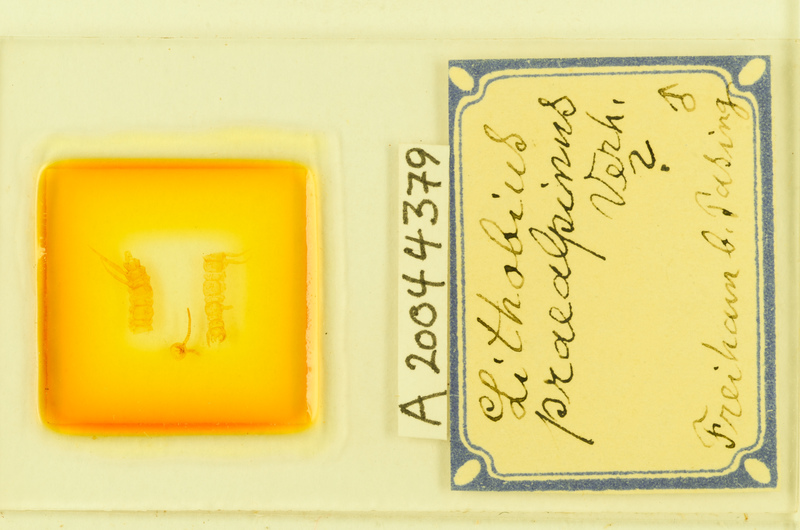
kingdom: Animalia
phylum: Arthropoda
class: Chilopoda
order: Lithobiomorpha
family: Lithobiidae
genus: Lithobius
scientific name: Lithobius
